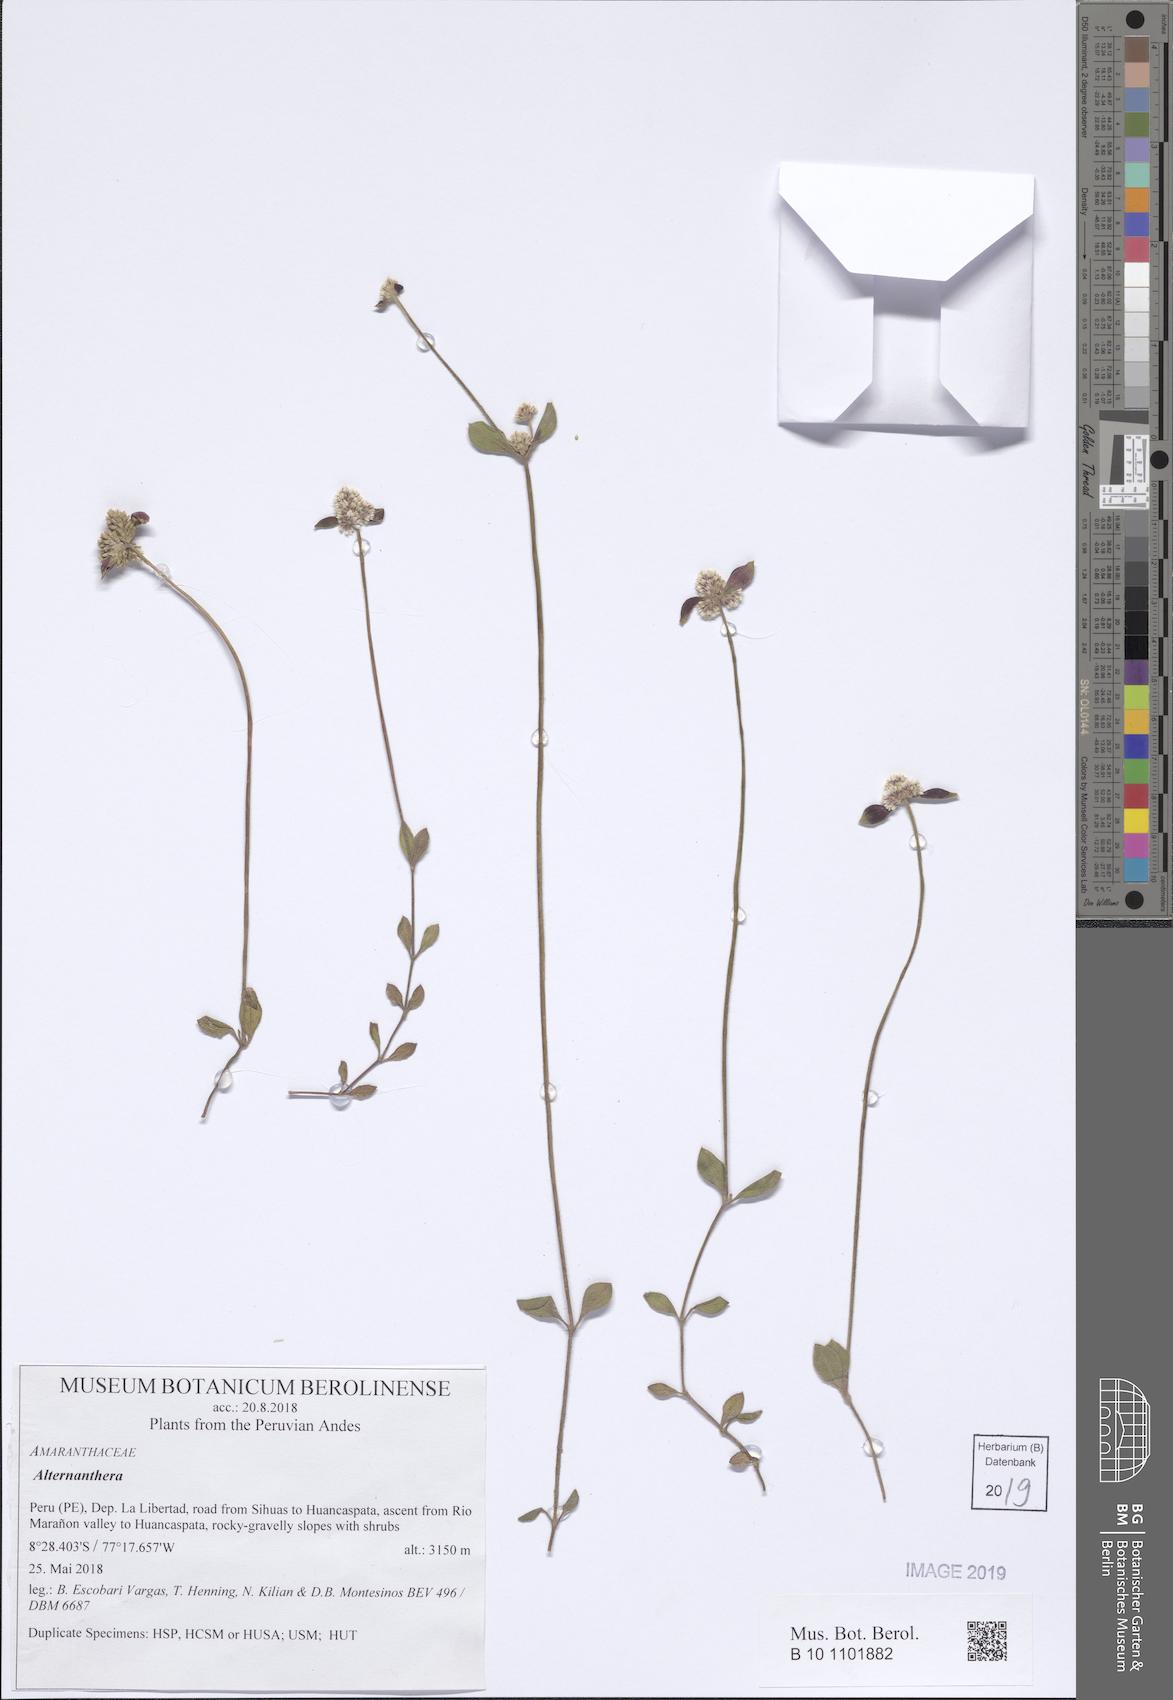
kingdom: Plantae
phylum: Tracheophyta
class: Magnoliopsida
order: Caryophyllales
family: Amaranthaceae
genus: Alternanthera
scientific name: Alternanthera
